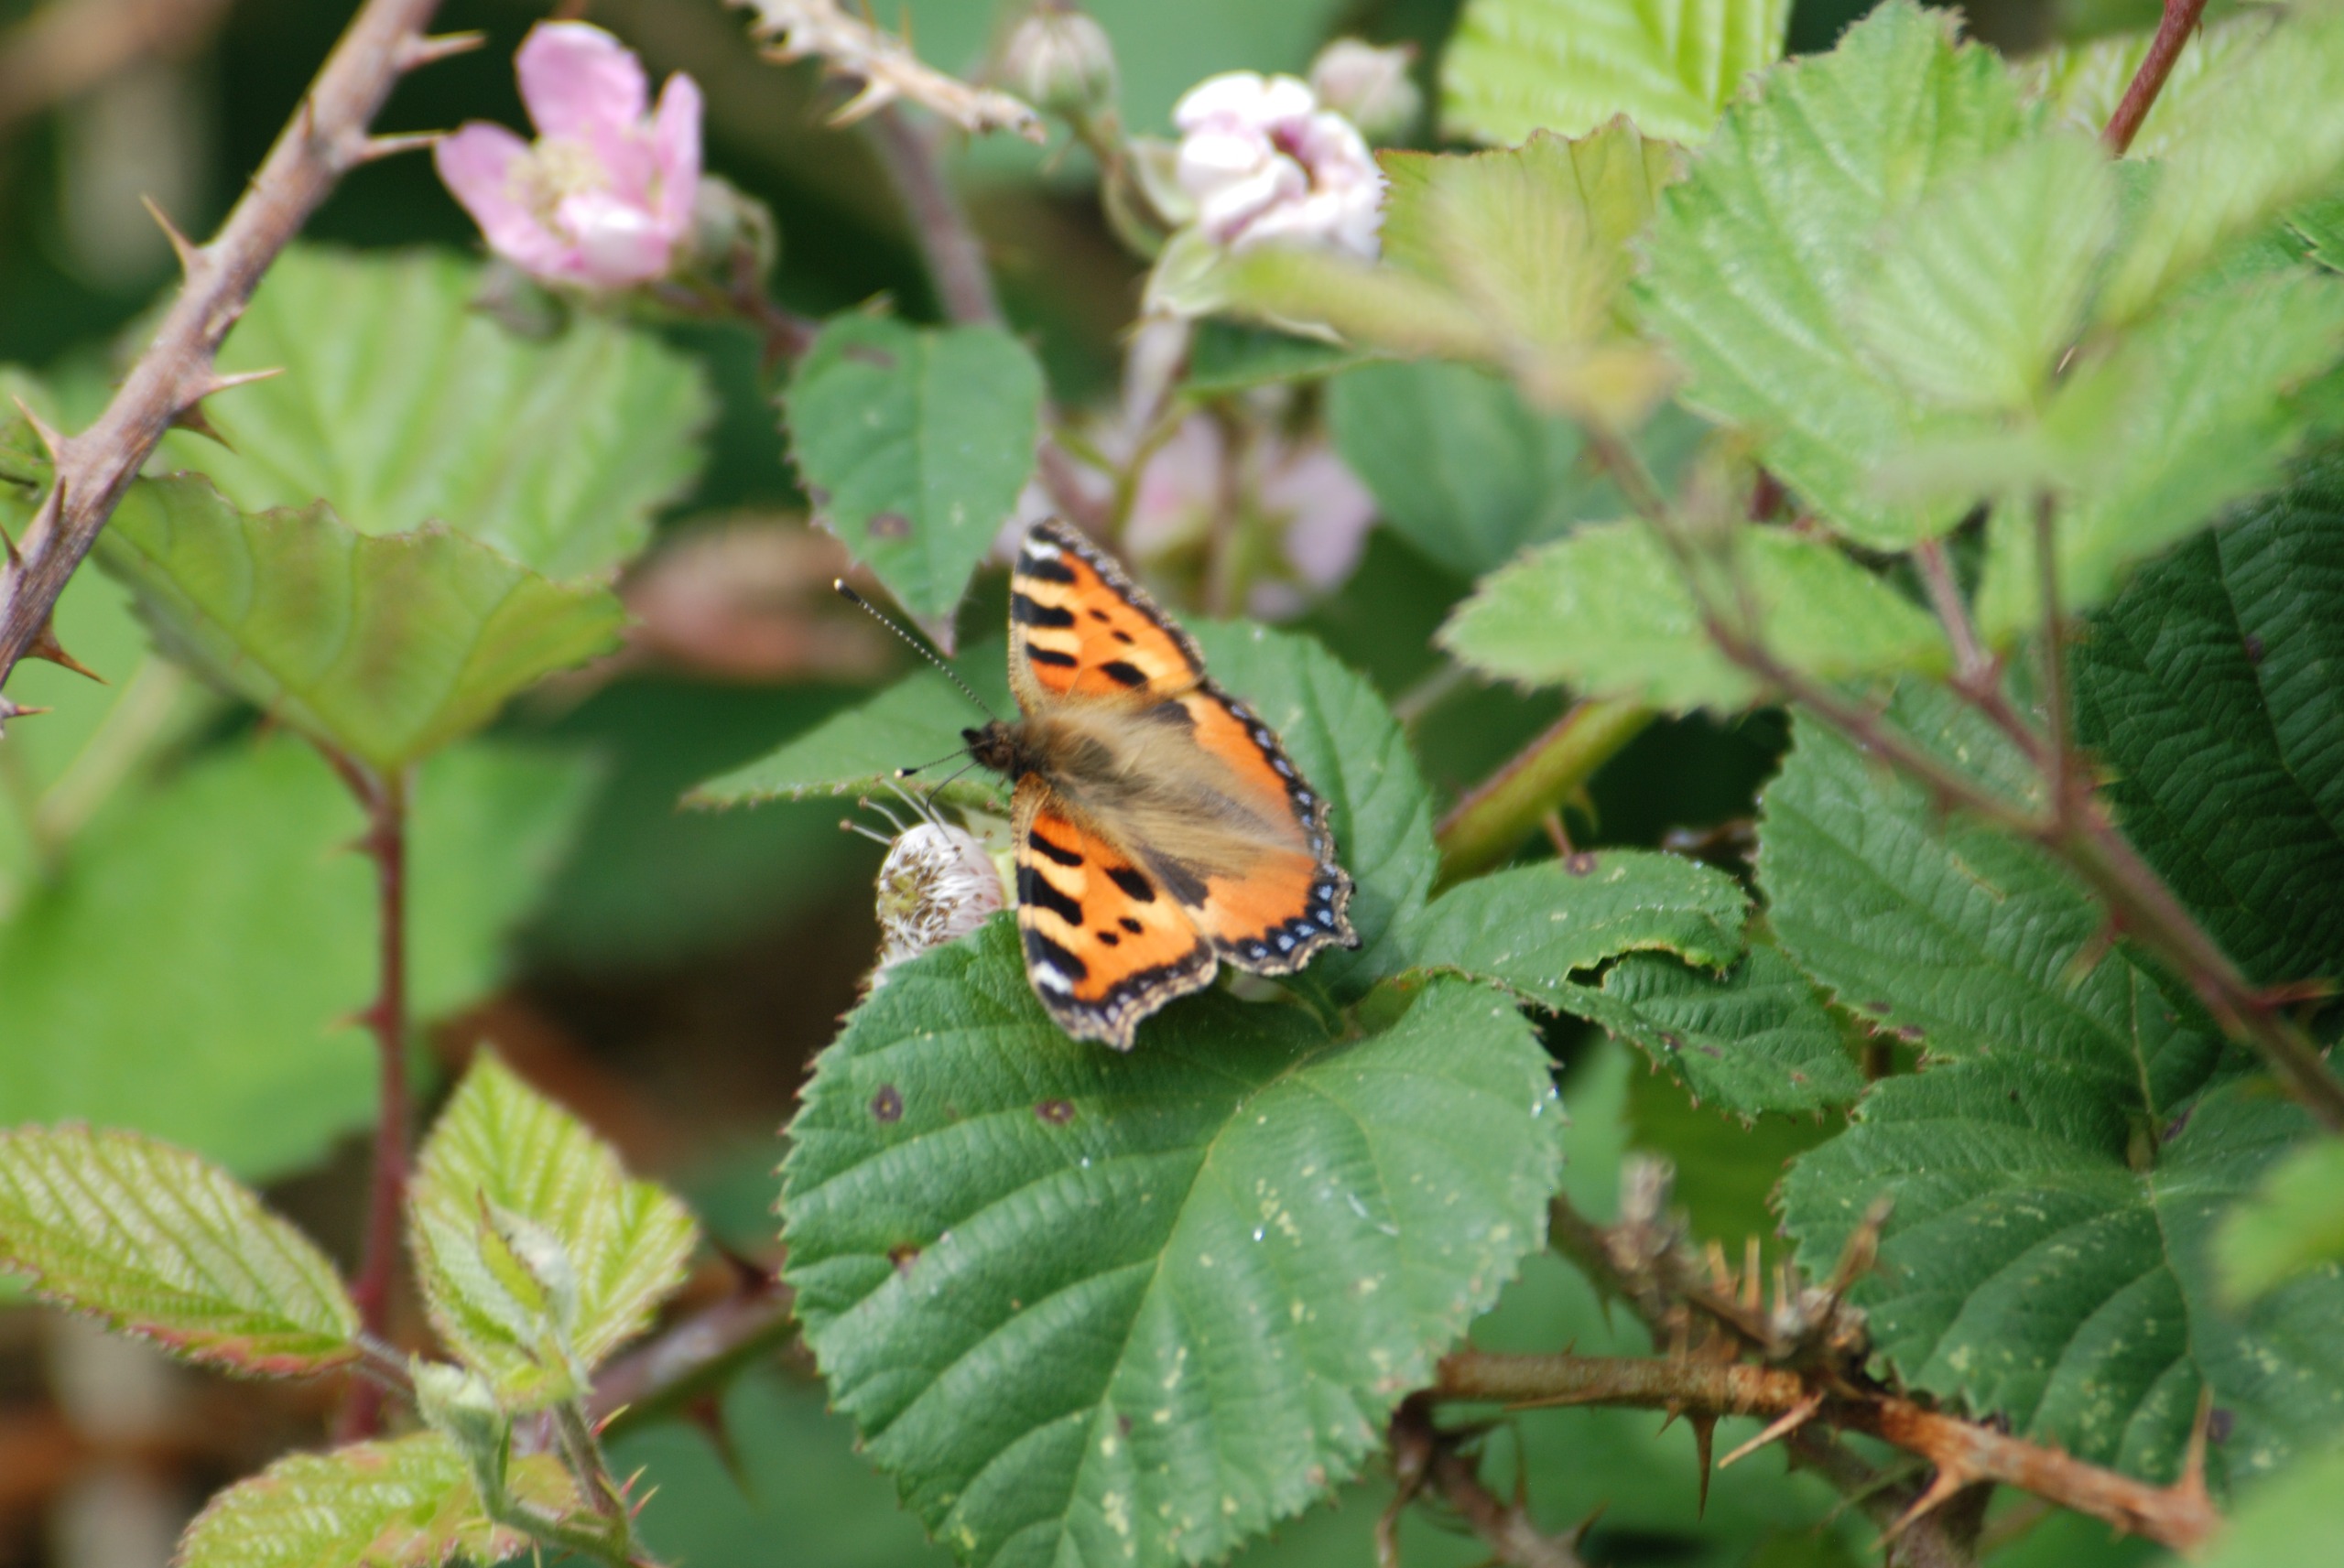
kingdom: Animalia
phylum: Arthropoda
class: Insecta
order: Lepidoptera
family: Nymphalidae
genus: Aglais
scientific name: Aglais urticae
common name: Nældens takvinge
